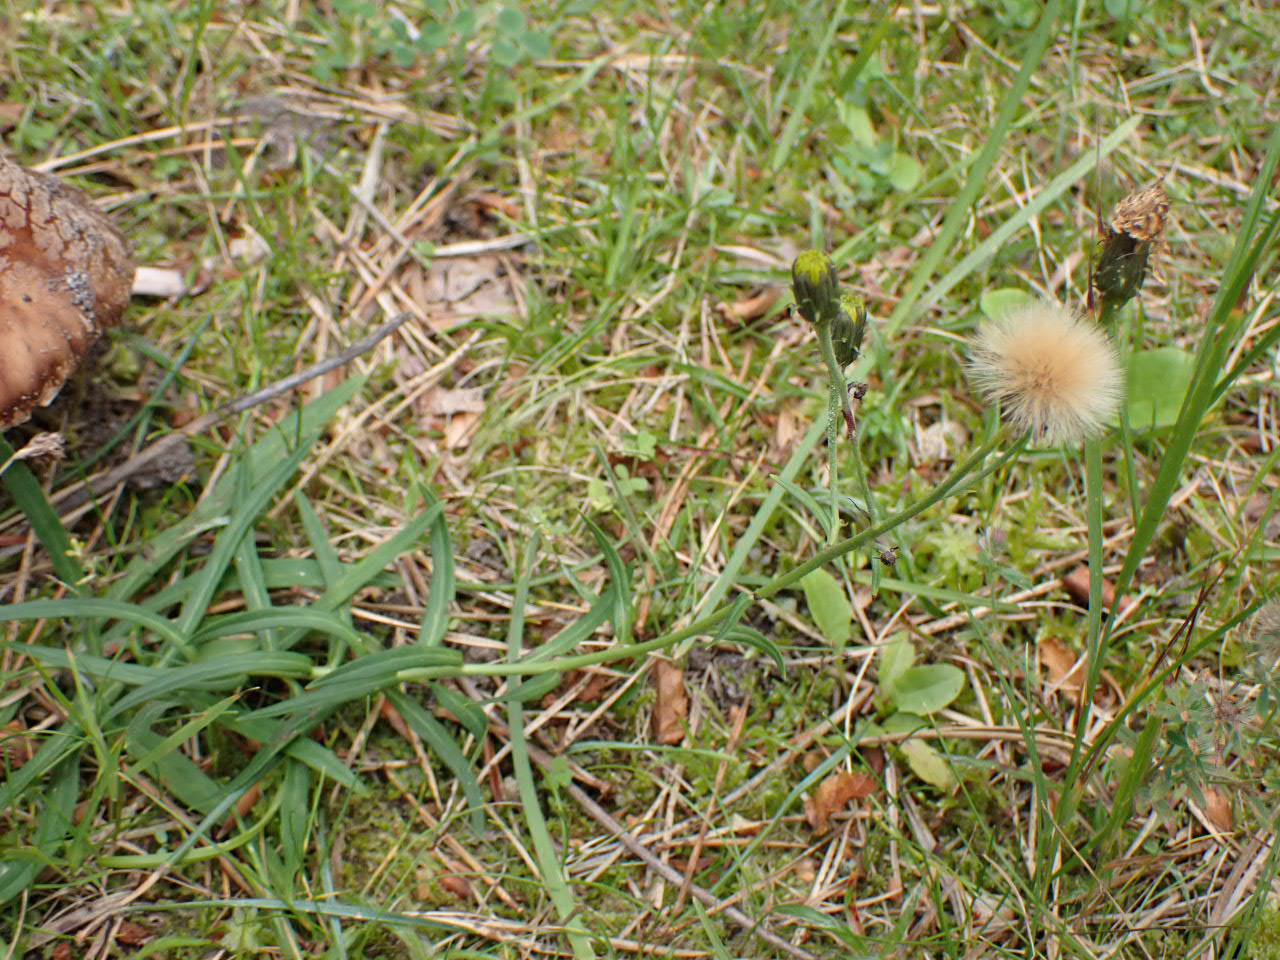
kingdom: Plantae
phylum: Tracheophyta
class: Magnoliopsida
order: Asterales
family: Asteraceae
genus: Hieracium
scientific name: Hieracium umbellatum
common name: Smalbladet høgeurt
